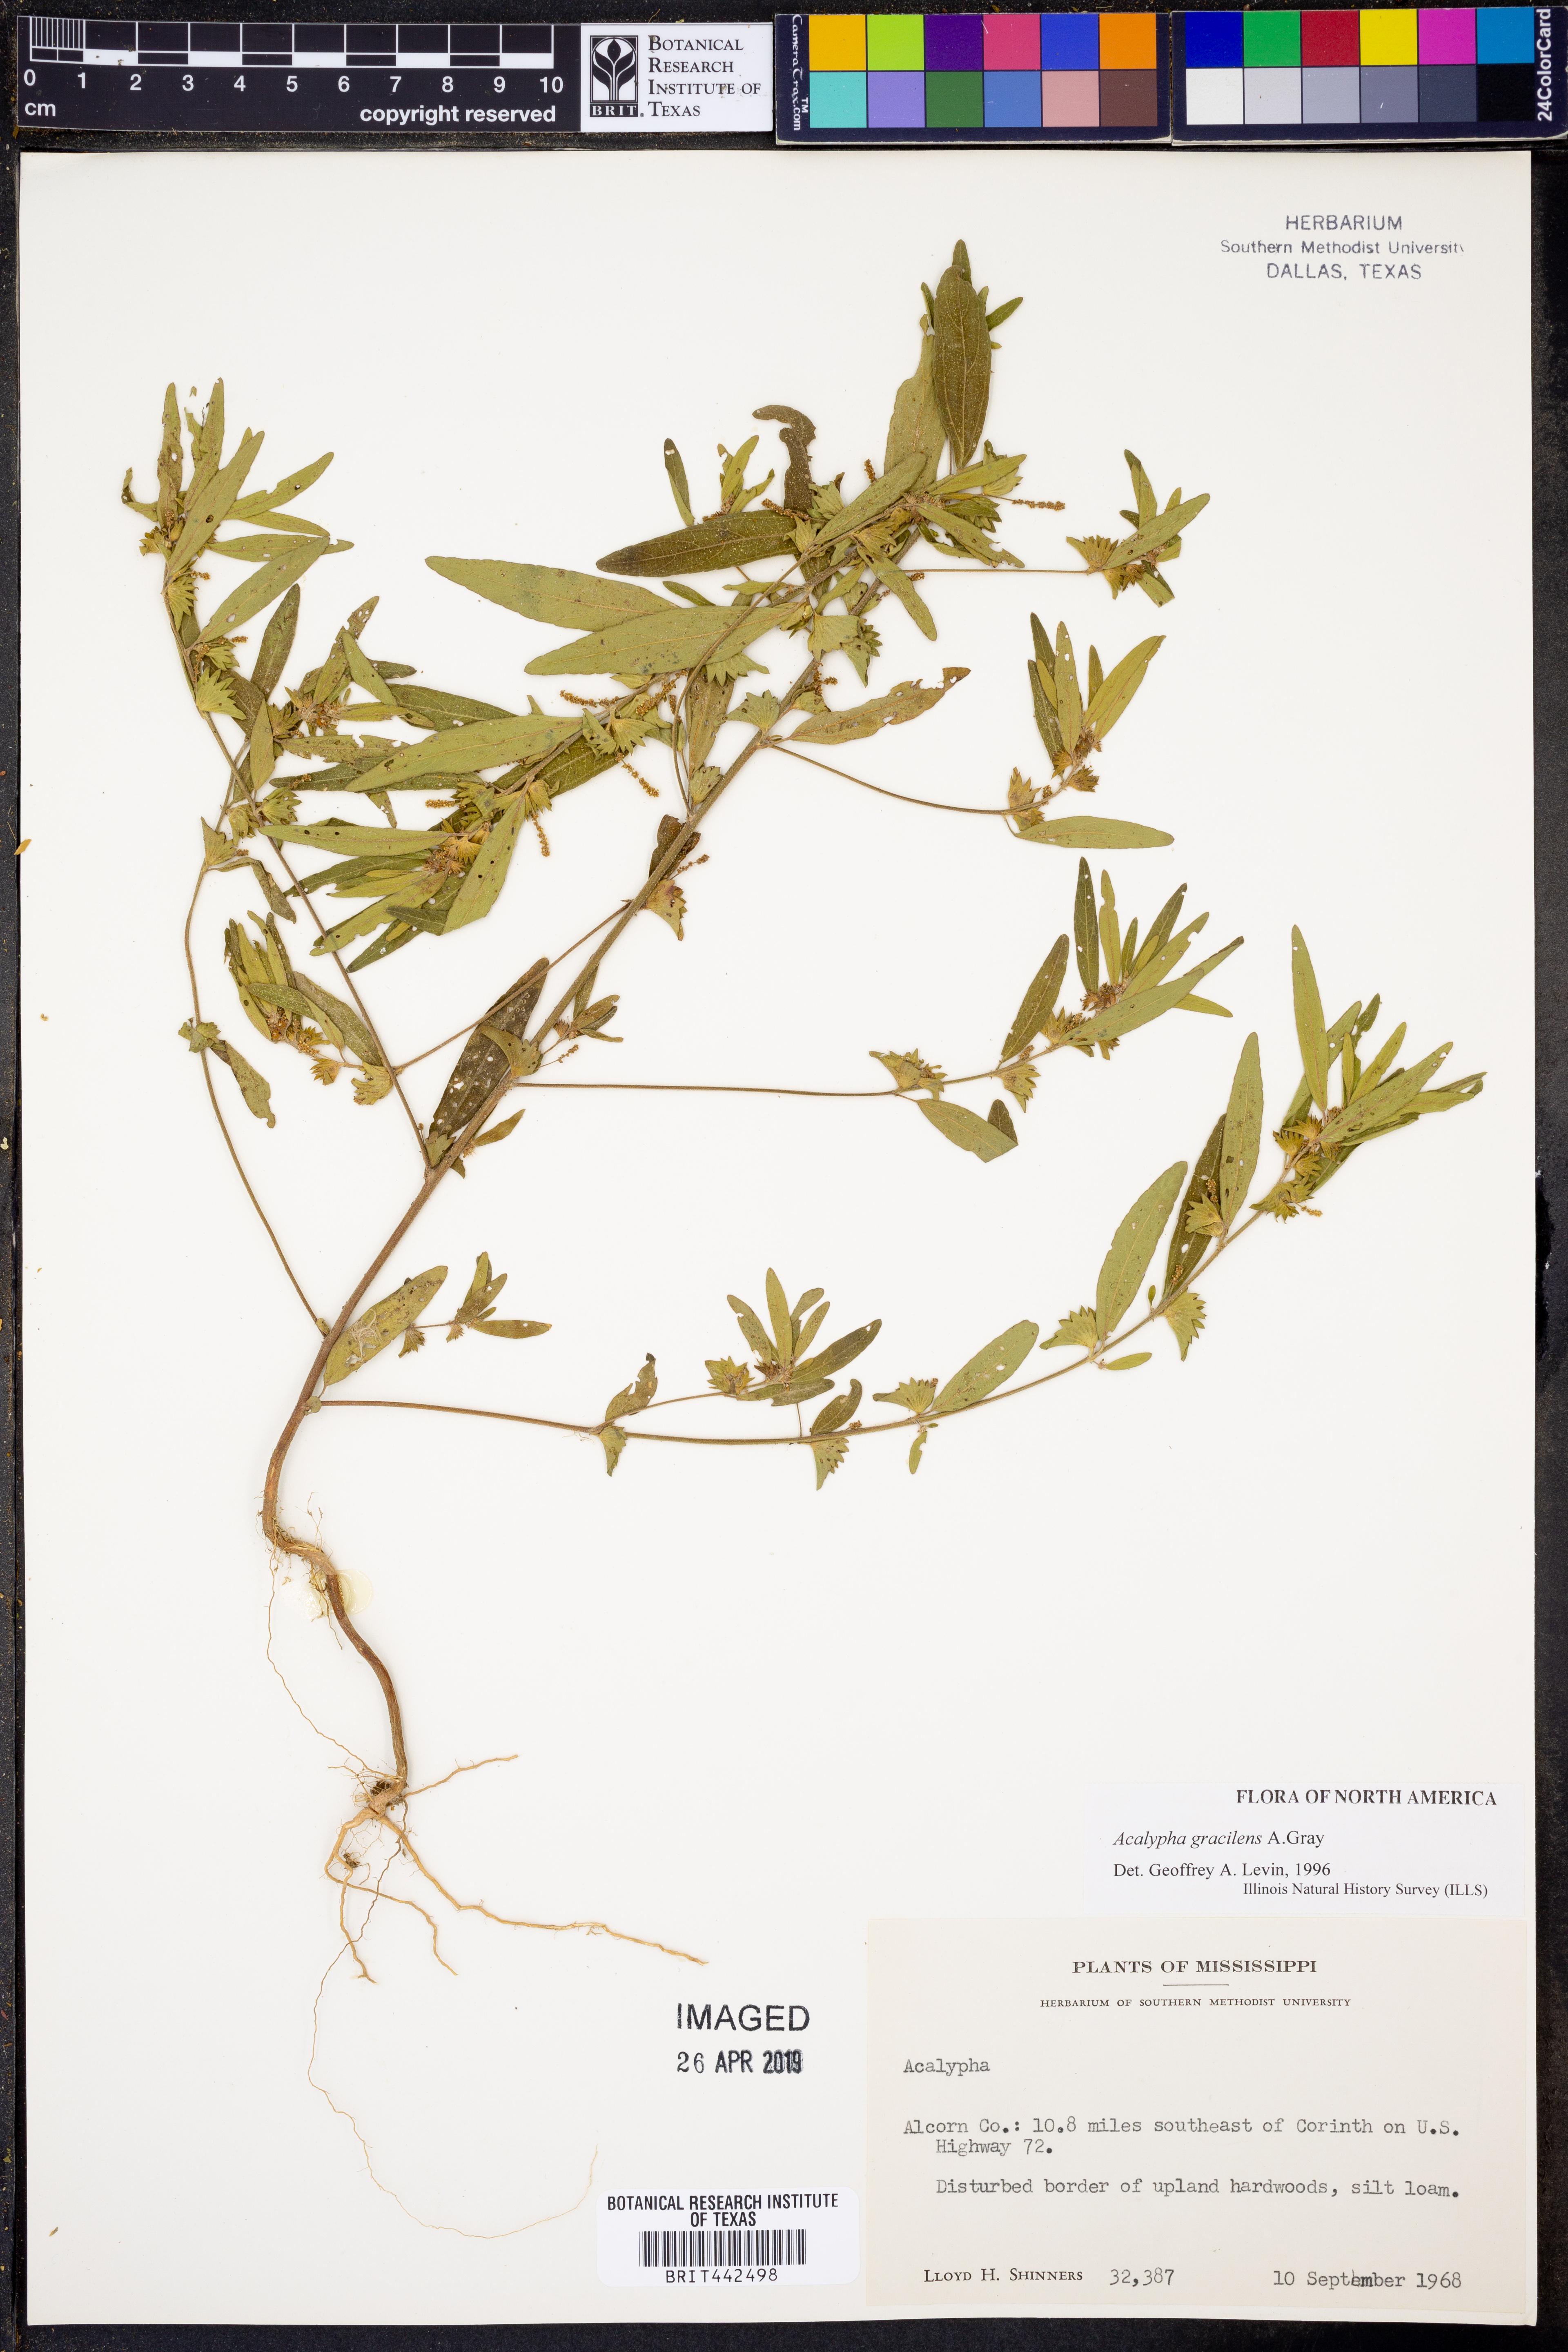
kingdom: Plantae
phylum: Tracheophyta
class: Magnoliopsida
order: Malpighiales
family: Euphorbiaceae
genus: Acalypha
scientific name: Acalypha gracilens
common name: Slender three-seeded mercury
